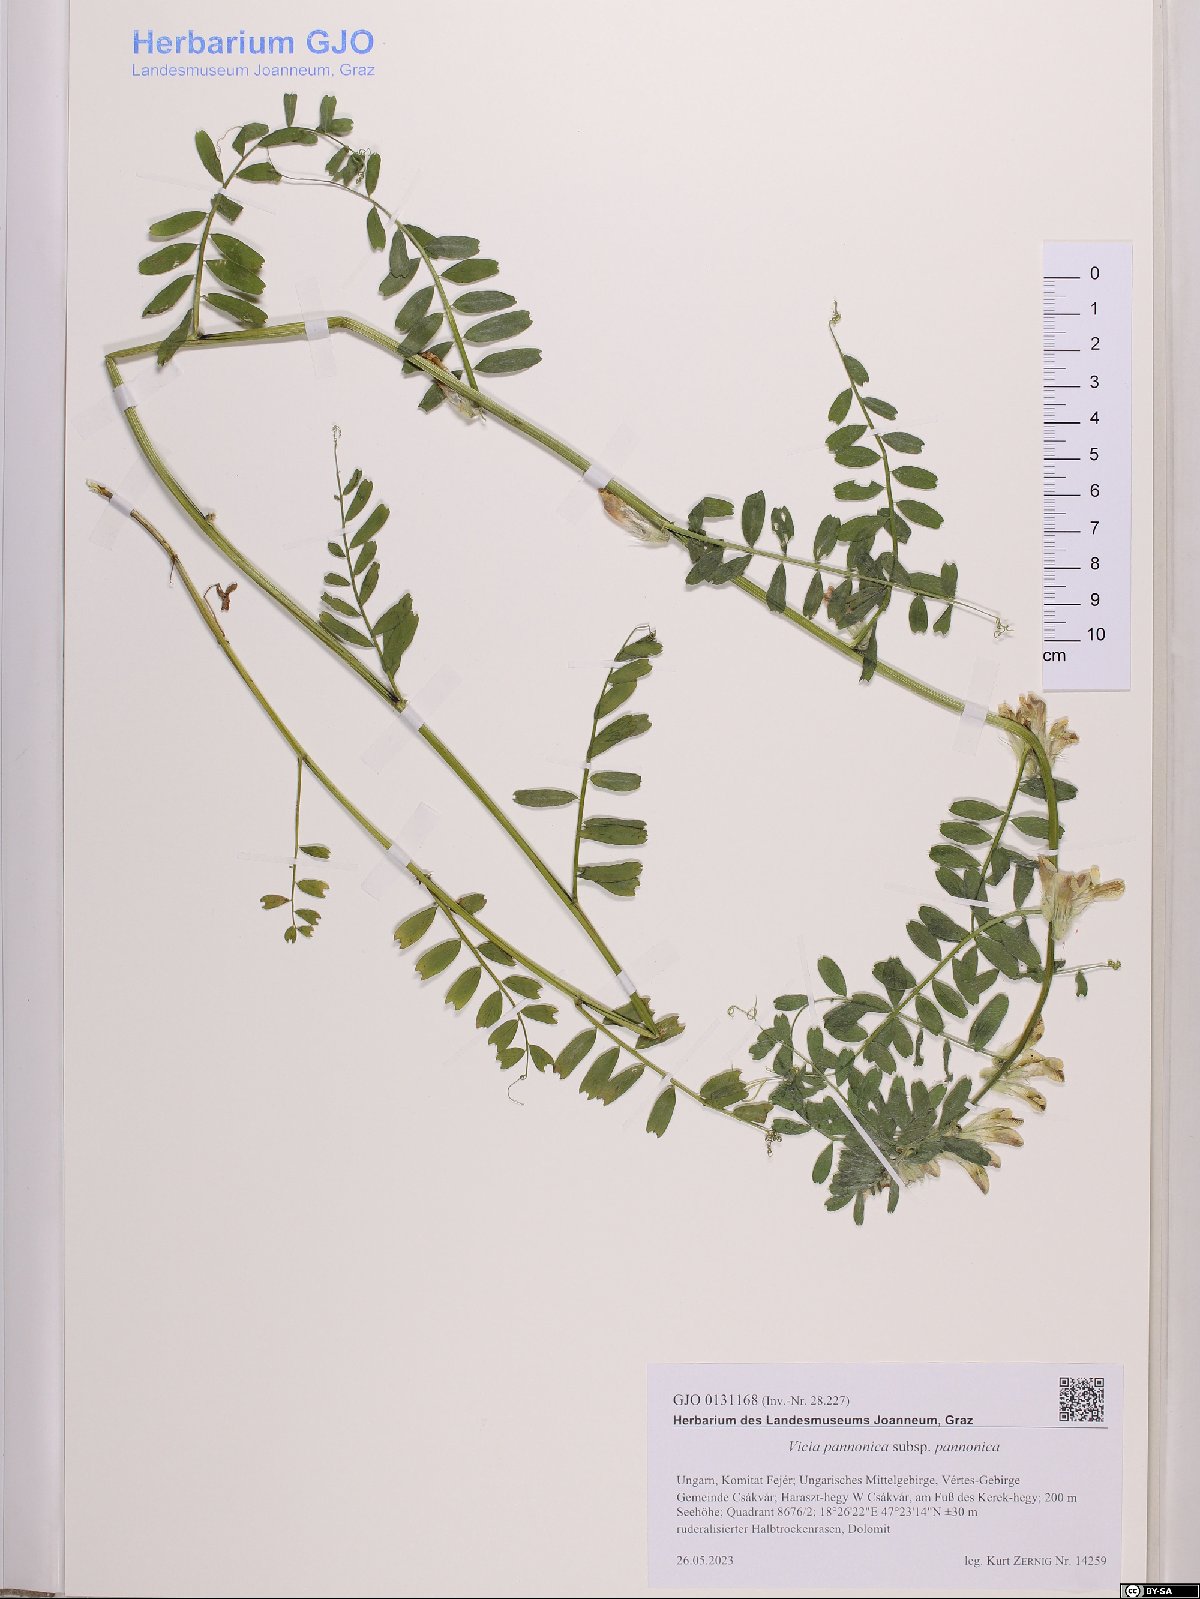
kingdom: Plantae
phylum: Tracheophyta
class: Magnoliopsida
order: Fabales
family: Fabaceae
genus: Vicia
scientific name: Vicia pannonica
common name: Hungarian vetch
